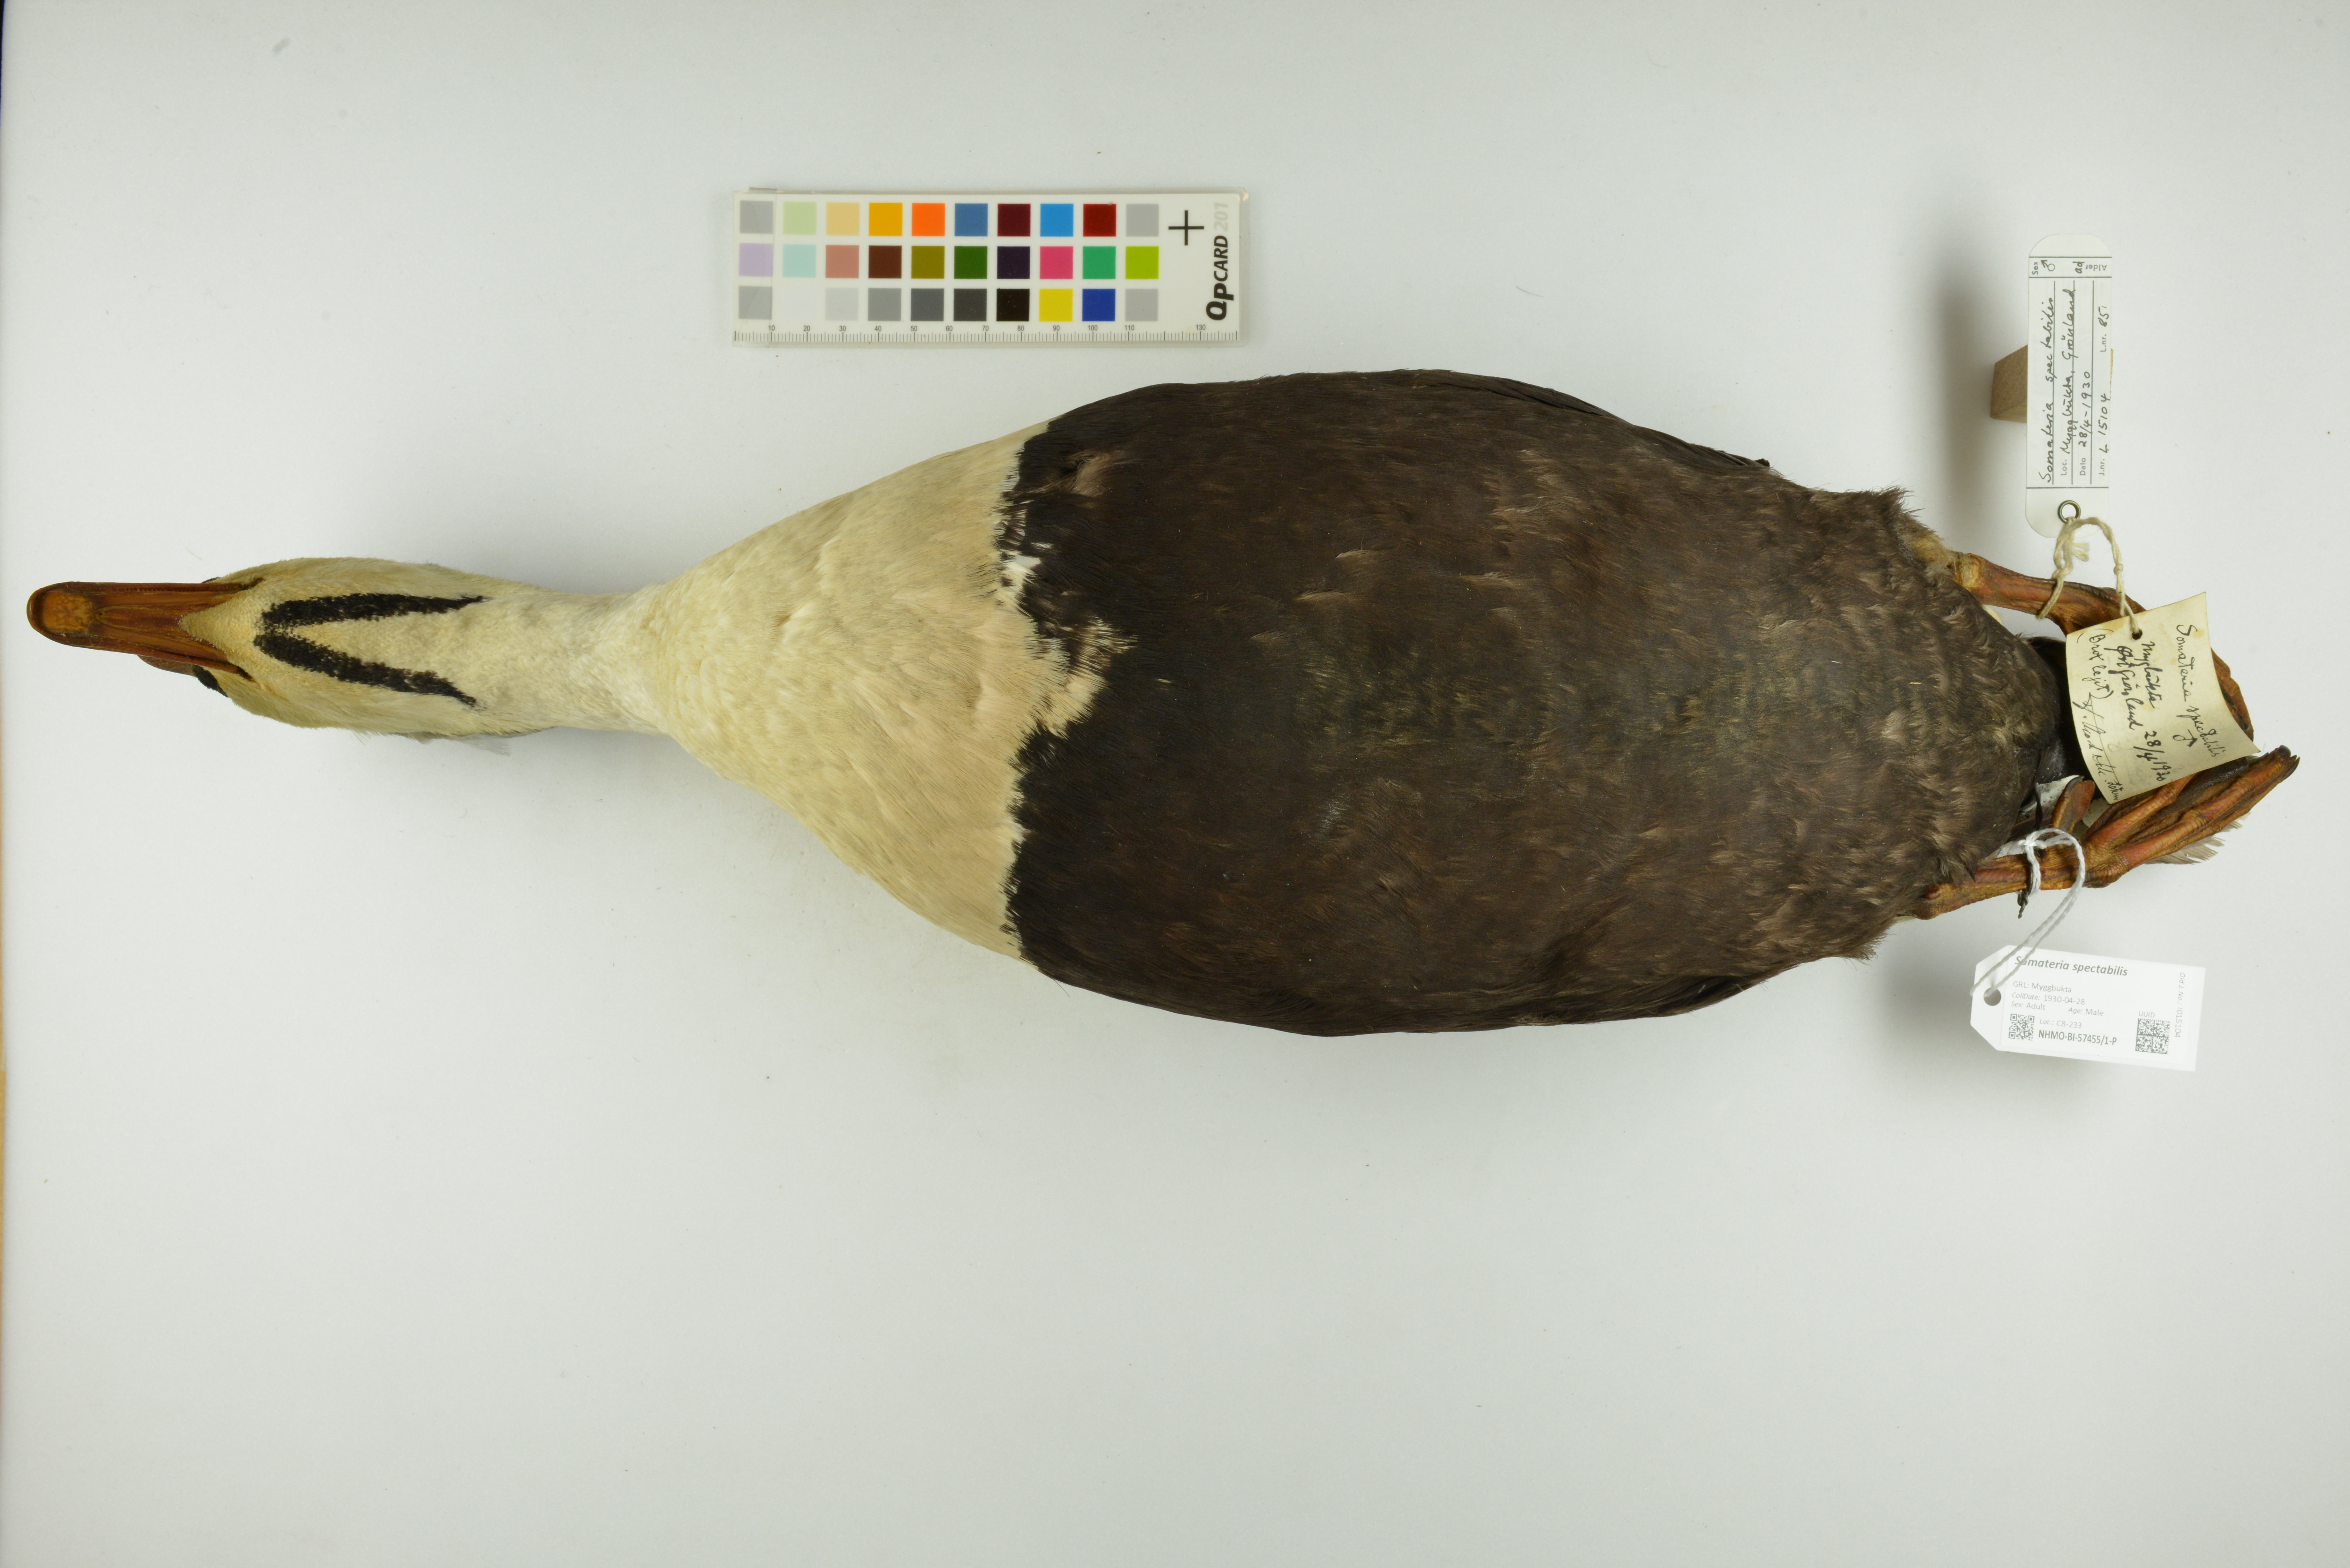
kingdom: Animalia
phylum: Chordata
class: Aves
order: Anseriformes
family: Anatidae
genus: Somateria
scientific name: Somateria spectabilis
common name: King eider
